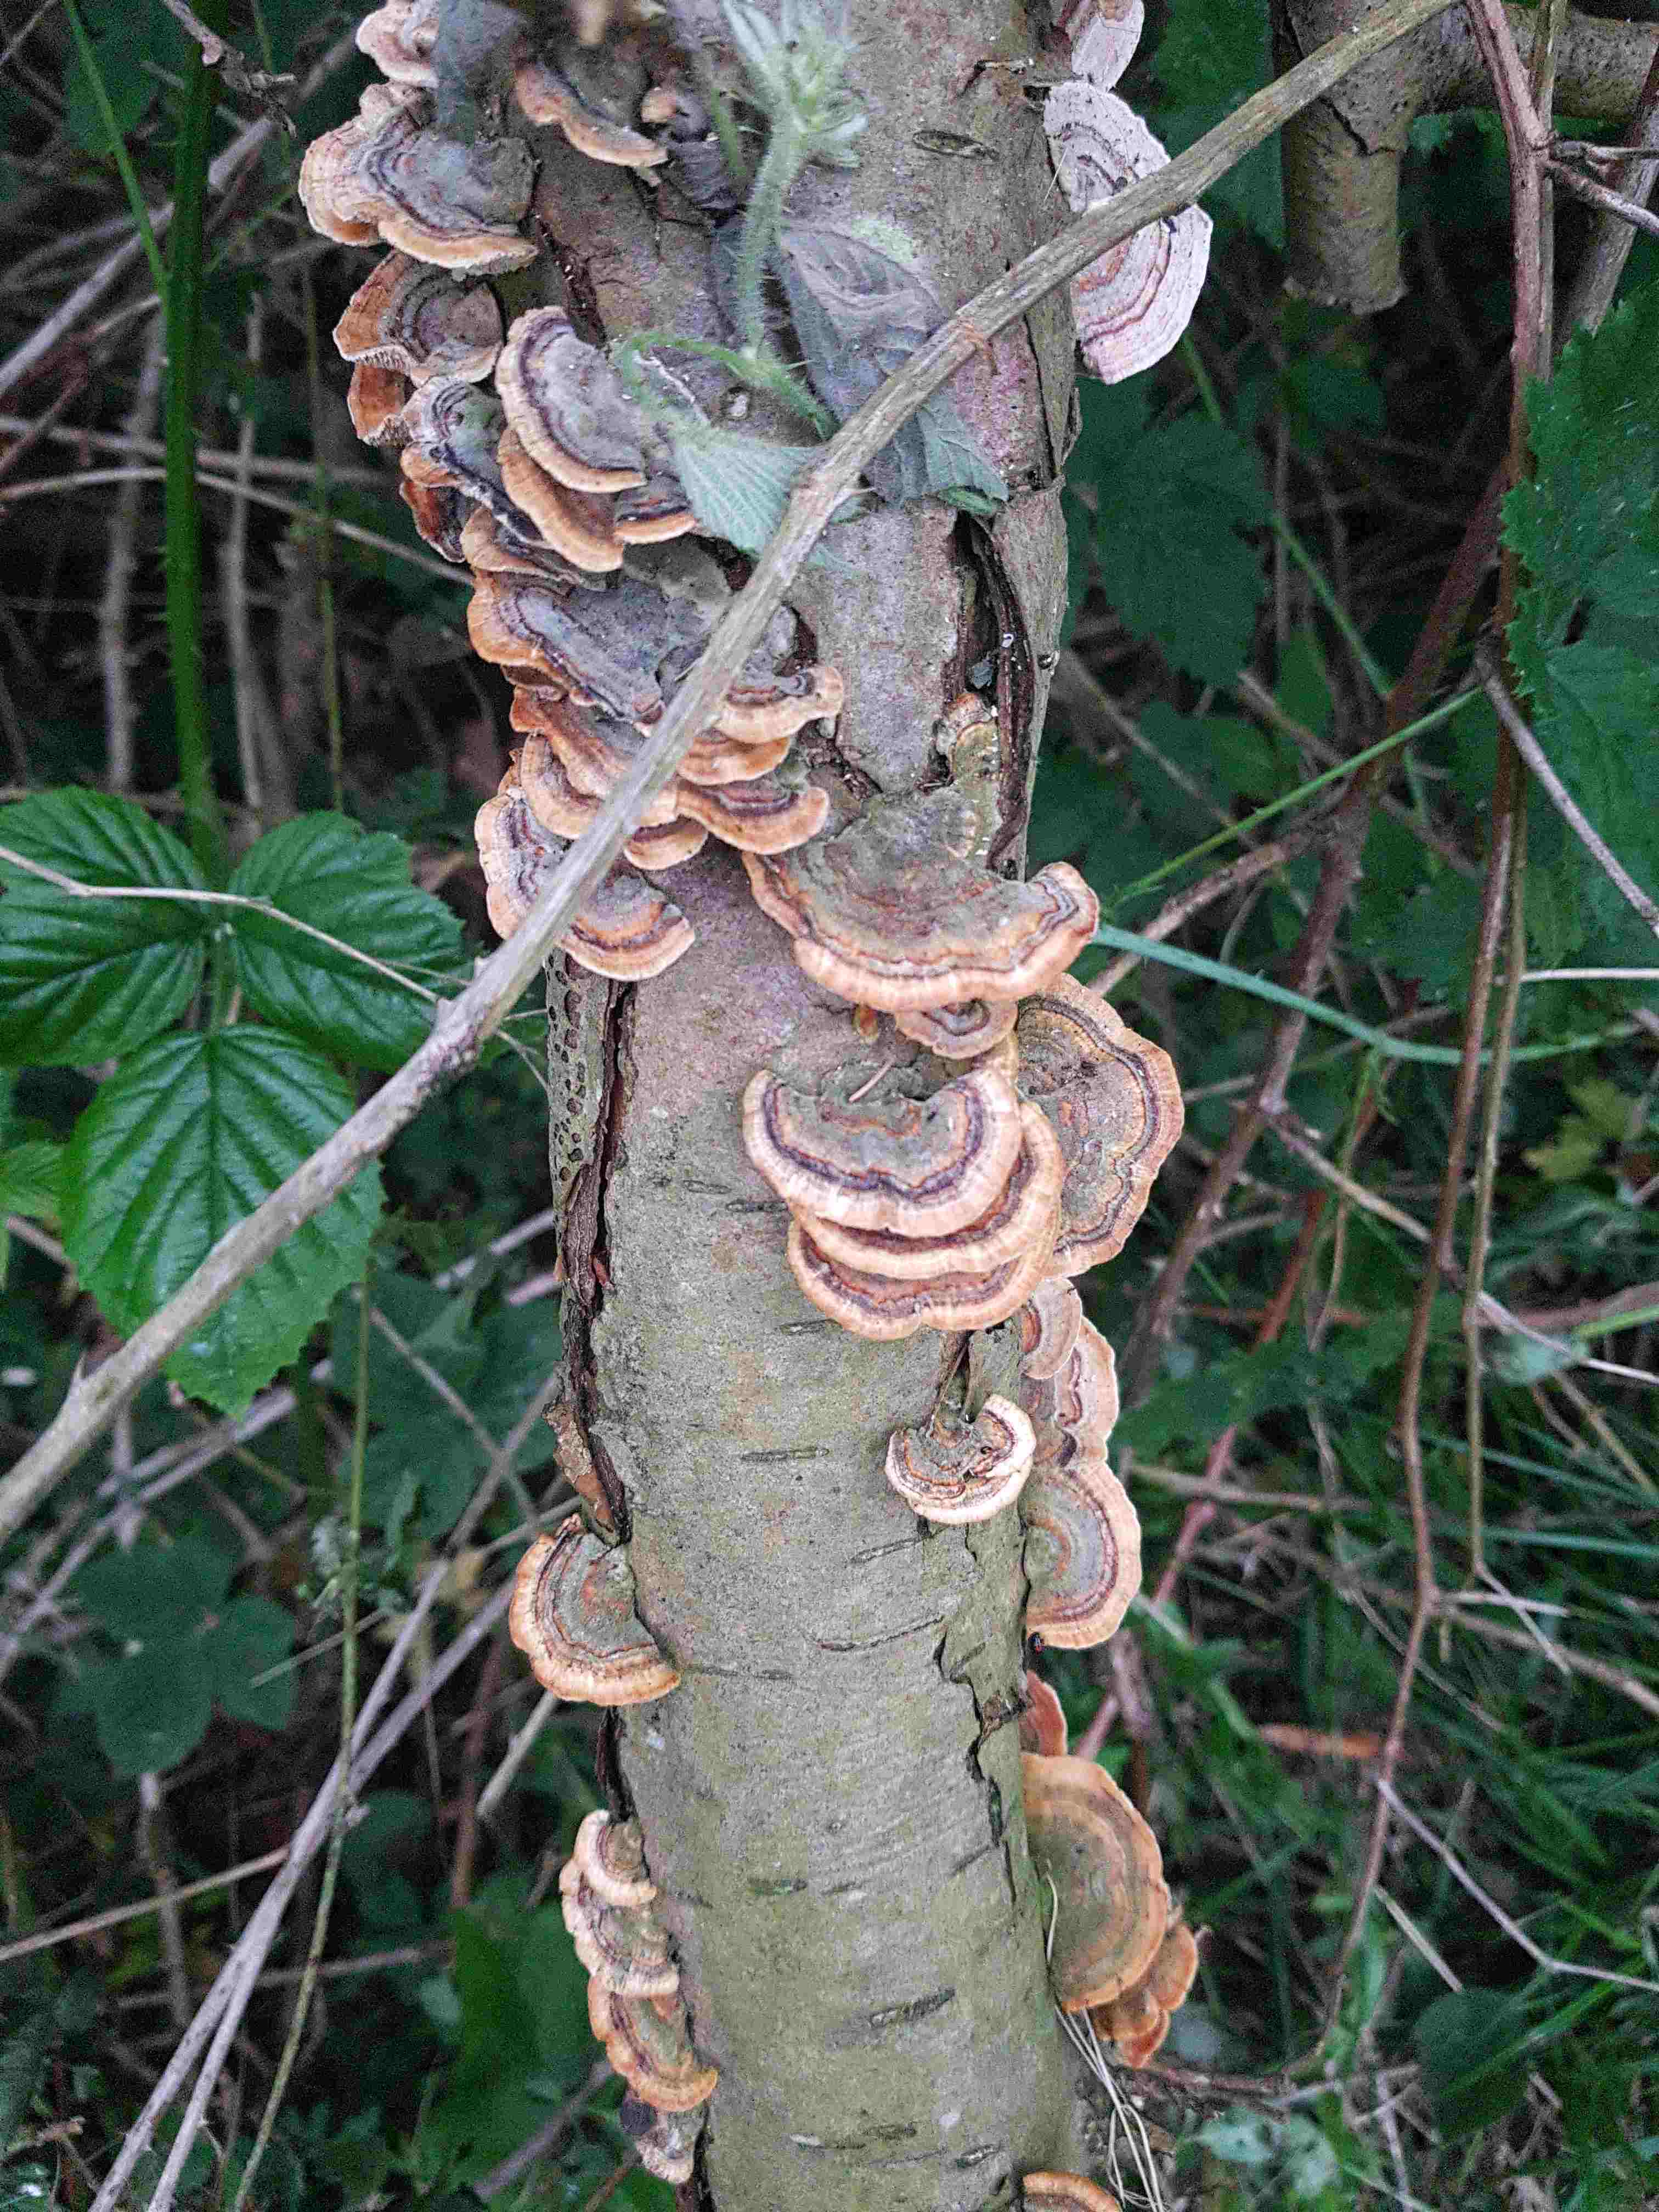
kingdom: Fungi
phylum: Basidiomycota
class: Agaricomycetes
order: Polyporales
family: Polyporaceae
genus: Trametes
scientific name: Trametes versicolor
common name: broget læderporesvamp
